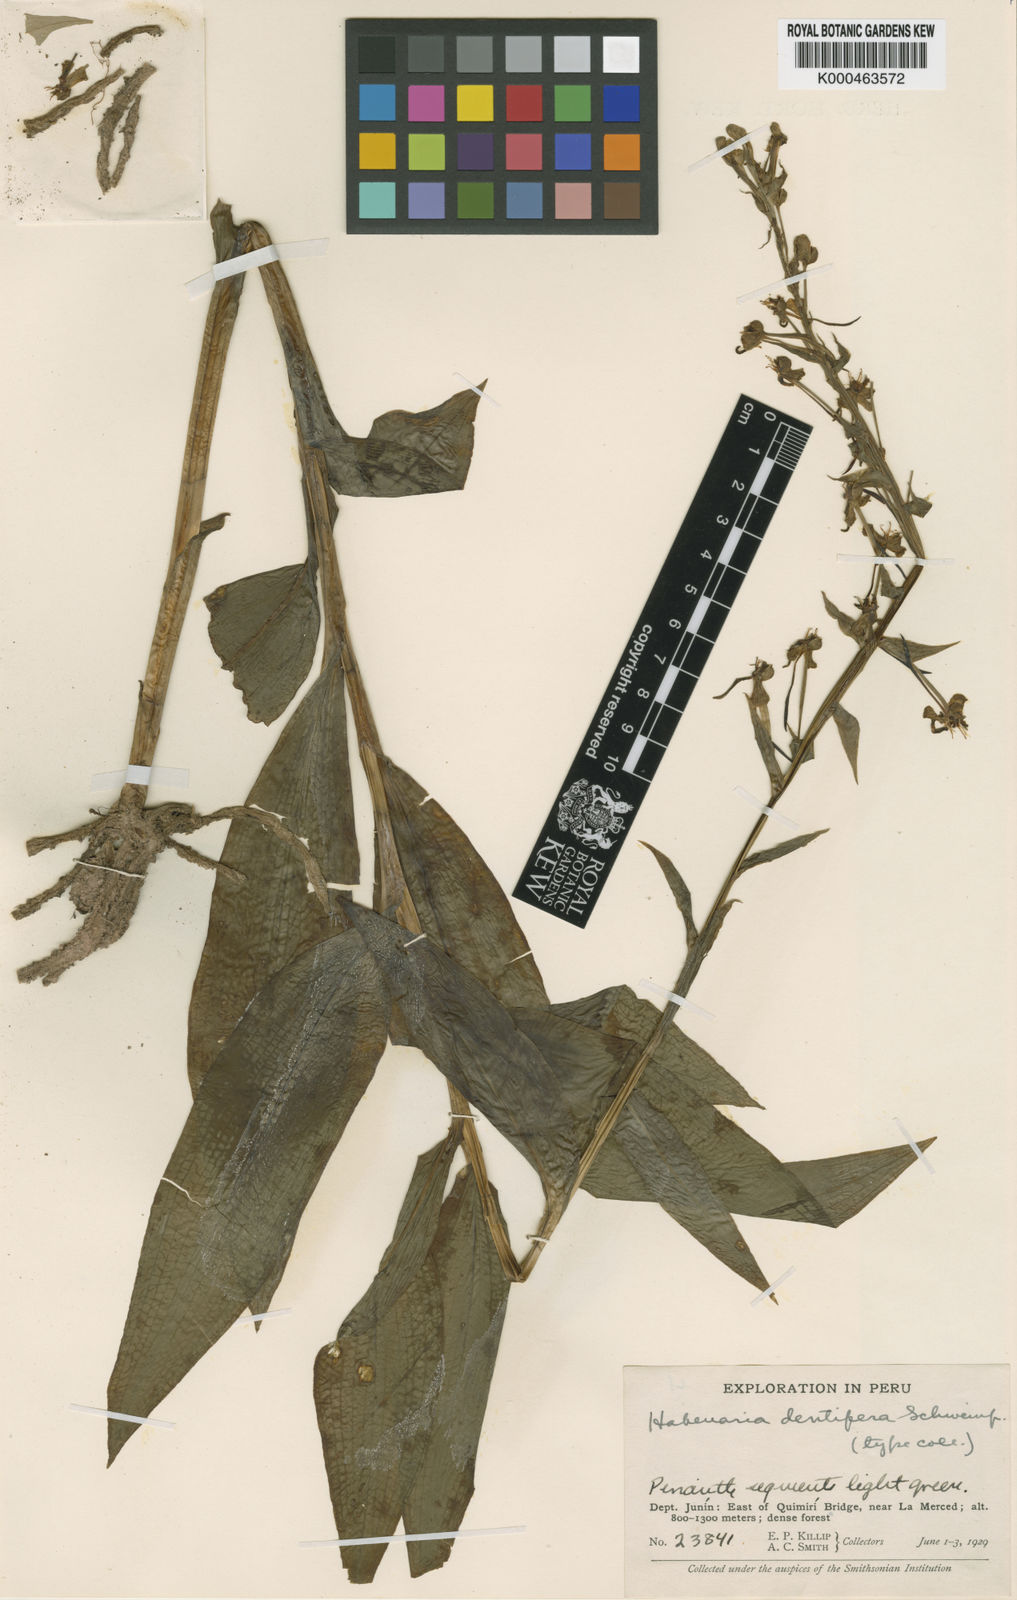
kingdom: Plantae
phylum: Tracheophyta
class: Liliopsida
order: Asparagales
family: Orchidaceae
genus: Habenaria
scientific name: Habenaria dentifera
